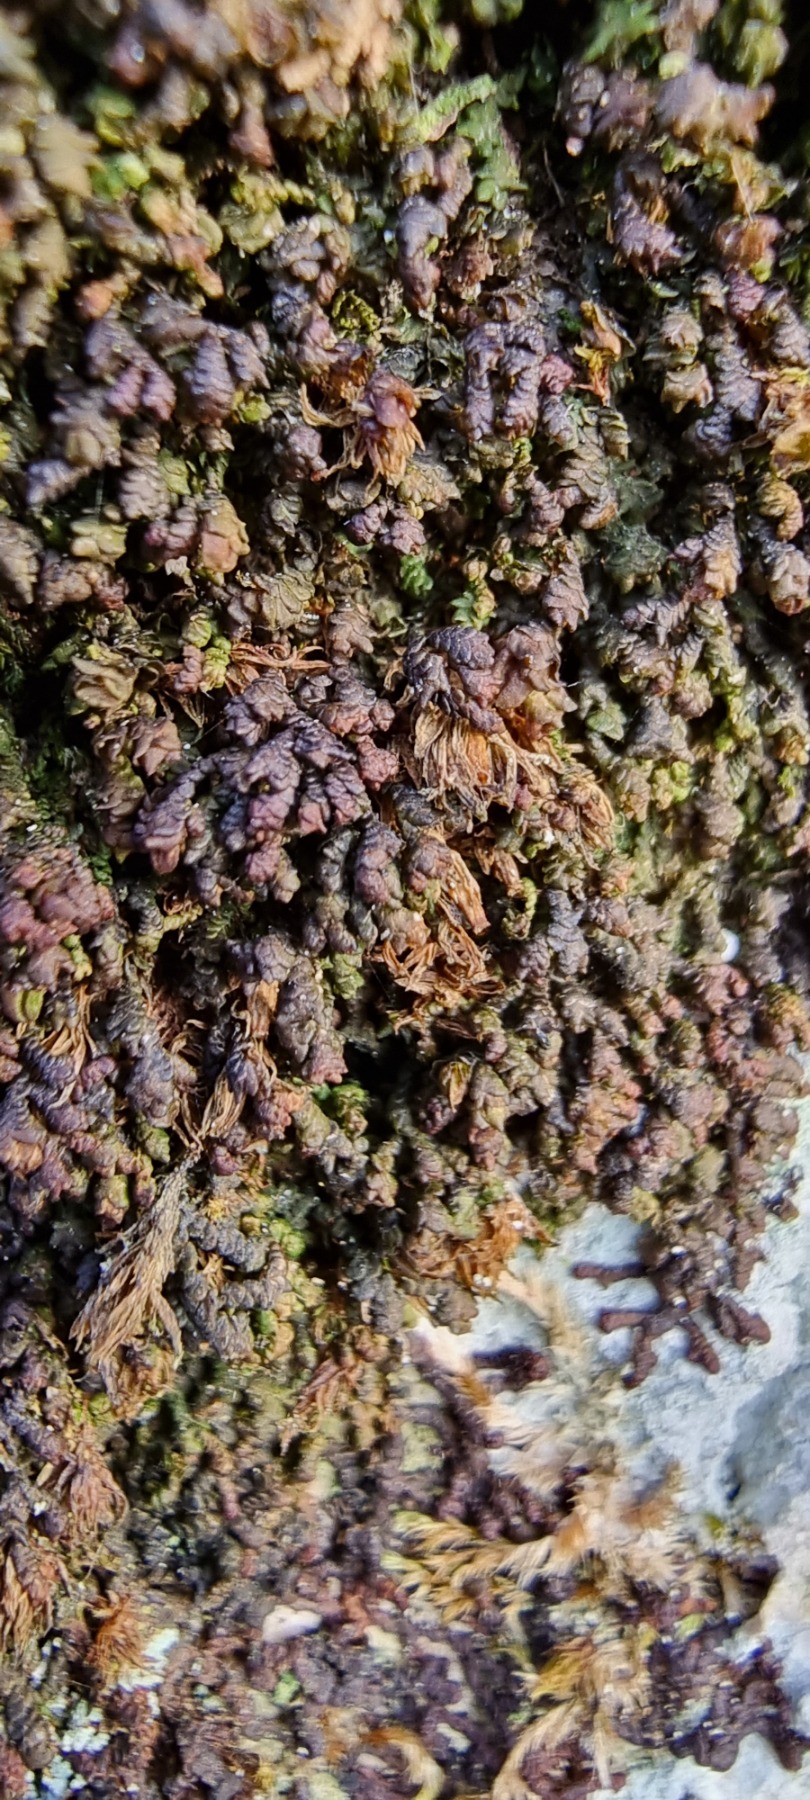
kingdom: Plantae
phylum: Marchantiophyta
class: Jungermanniopsida
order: Porellales
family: Frullaniaceae
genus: Frullania
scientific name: Frullania dilatata
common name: Mat bronzemos
